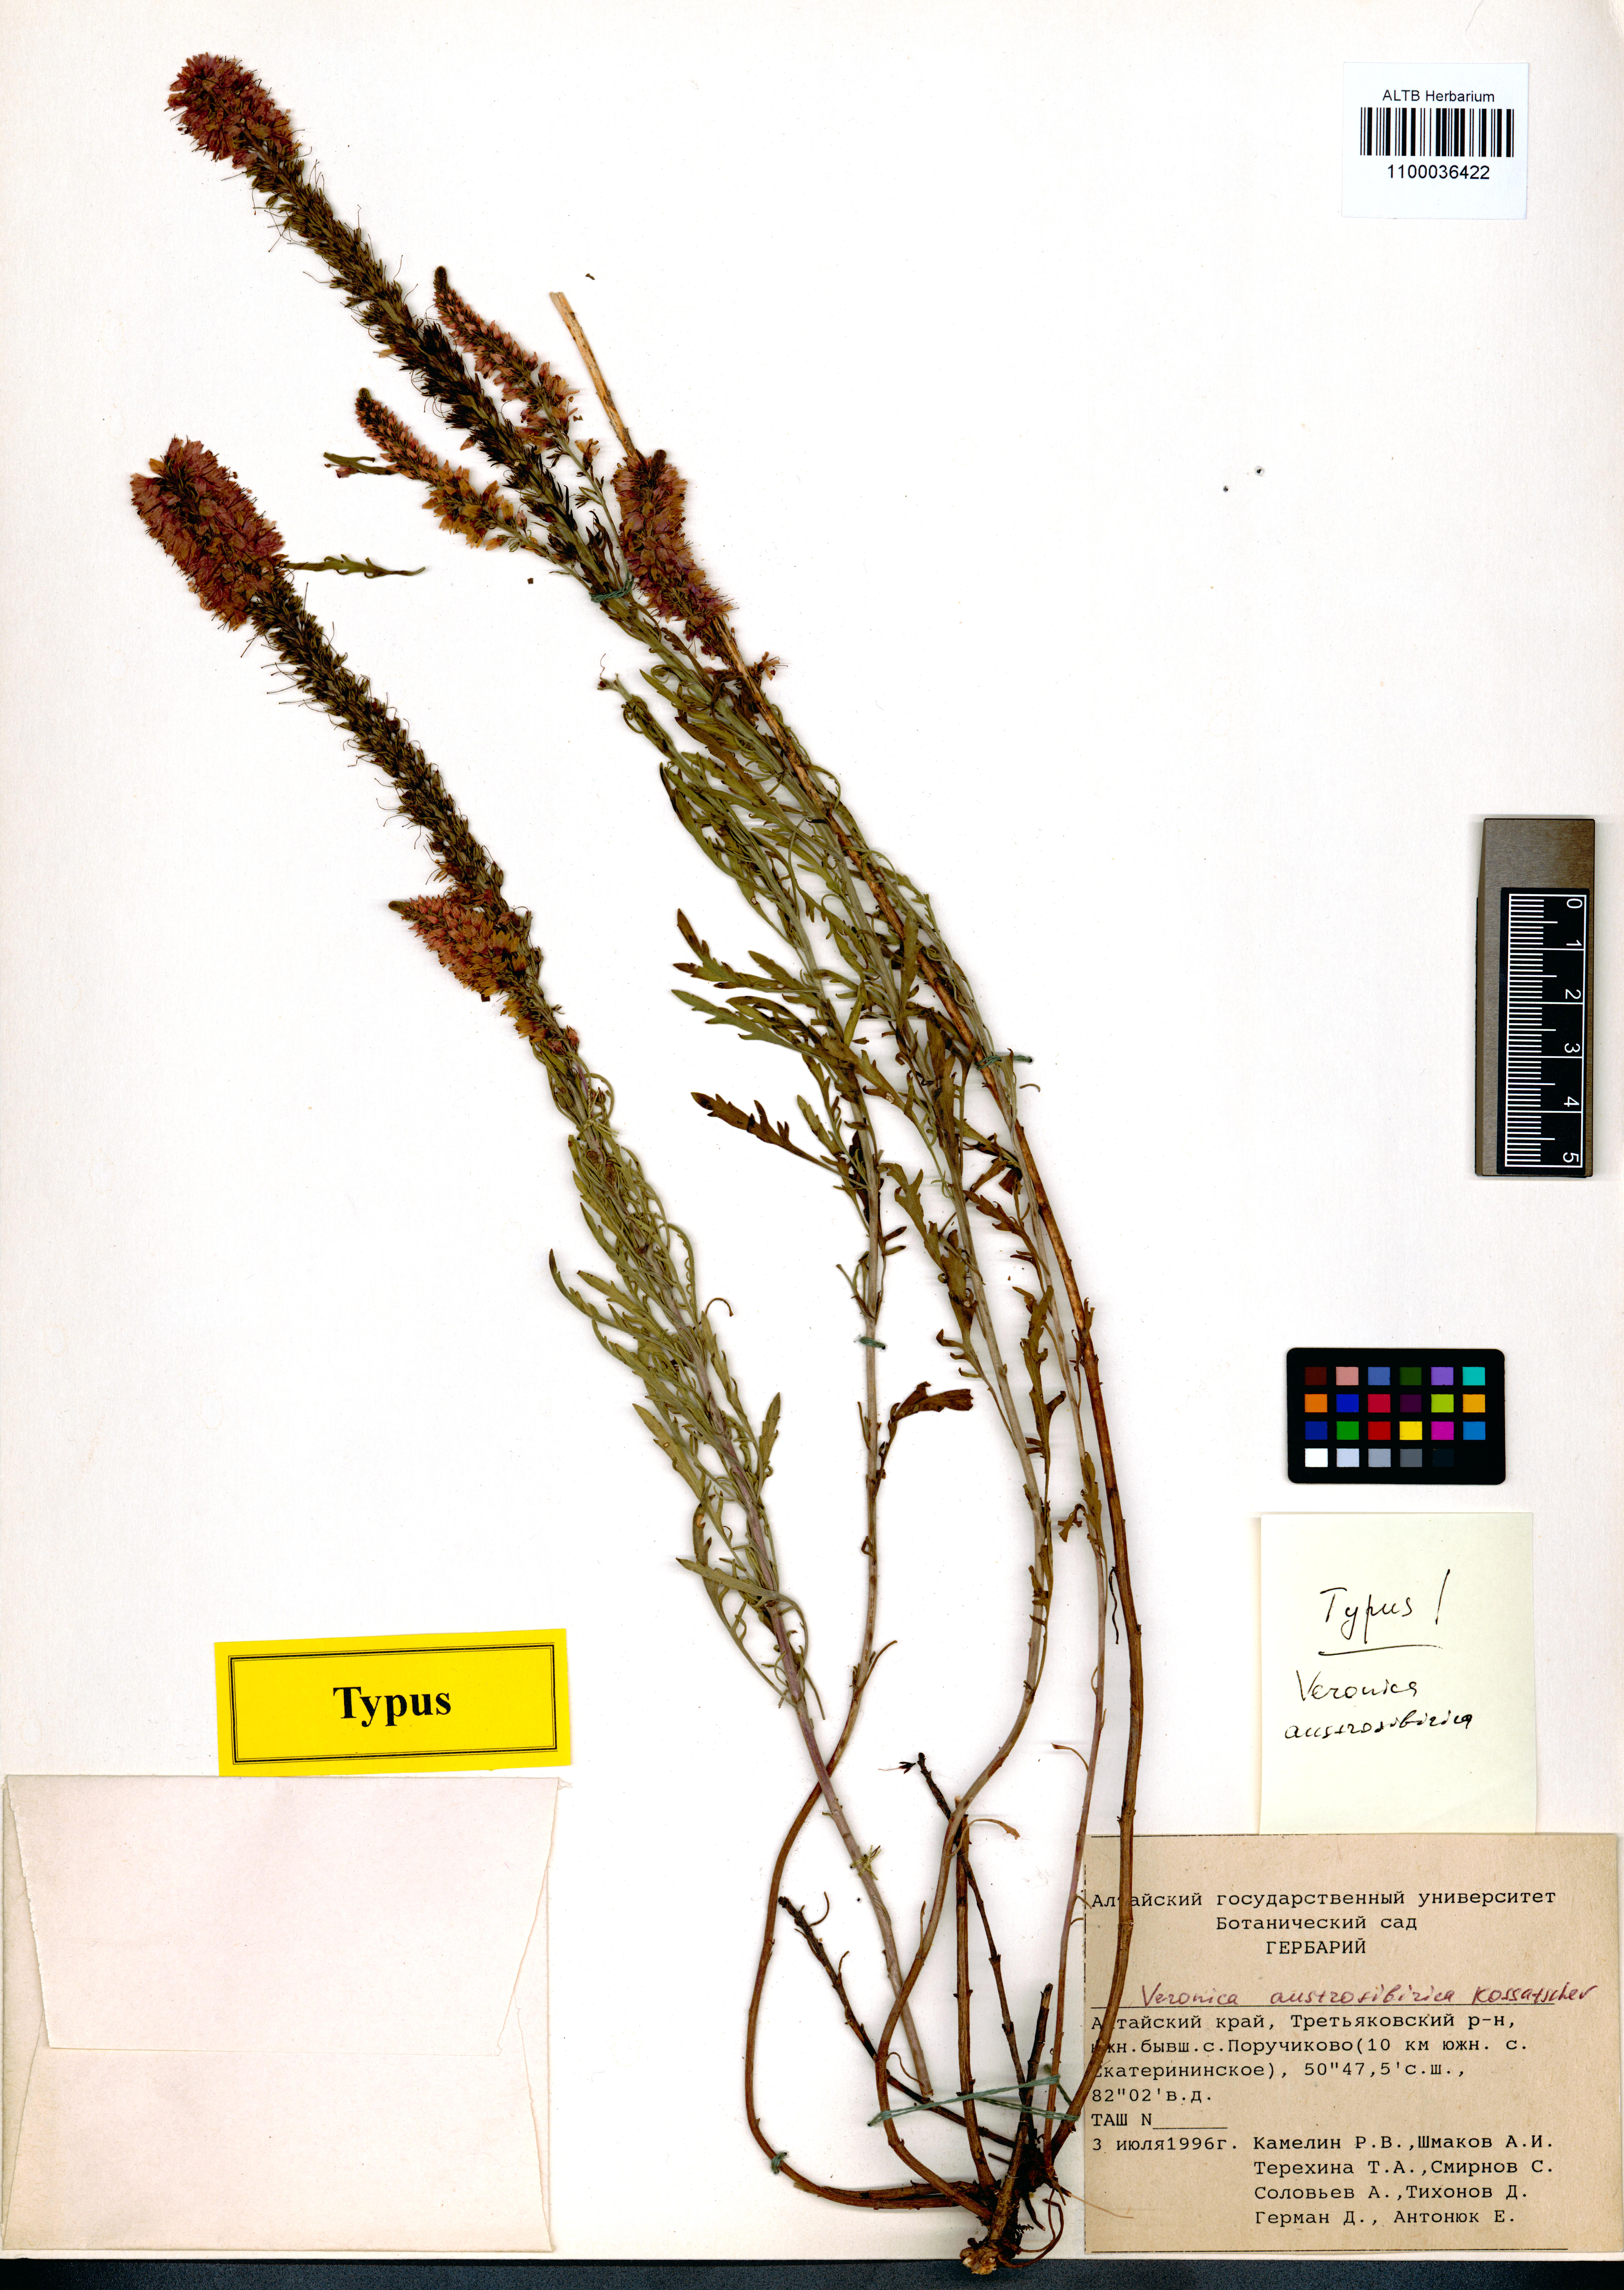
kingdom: Plantae
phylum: Tracheophyta
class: Magnoliopsida
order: Lamiales
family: Plantaginaceae
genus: Veronica
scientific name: Veronica altaica
